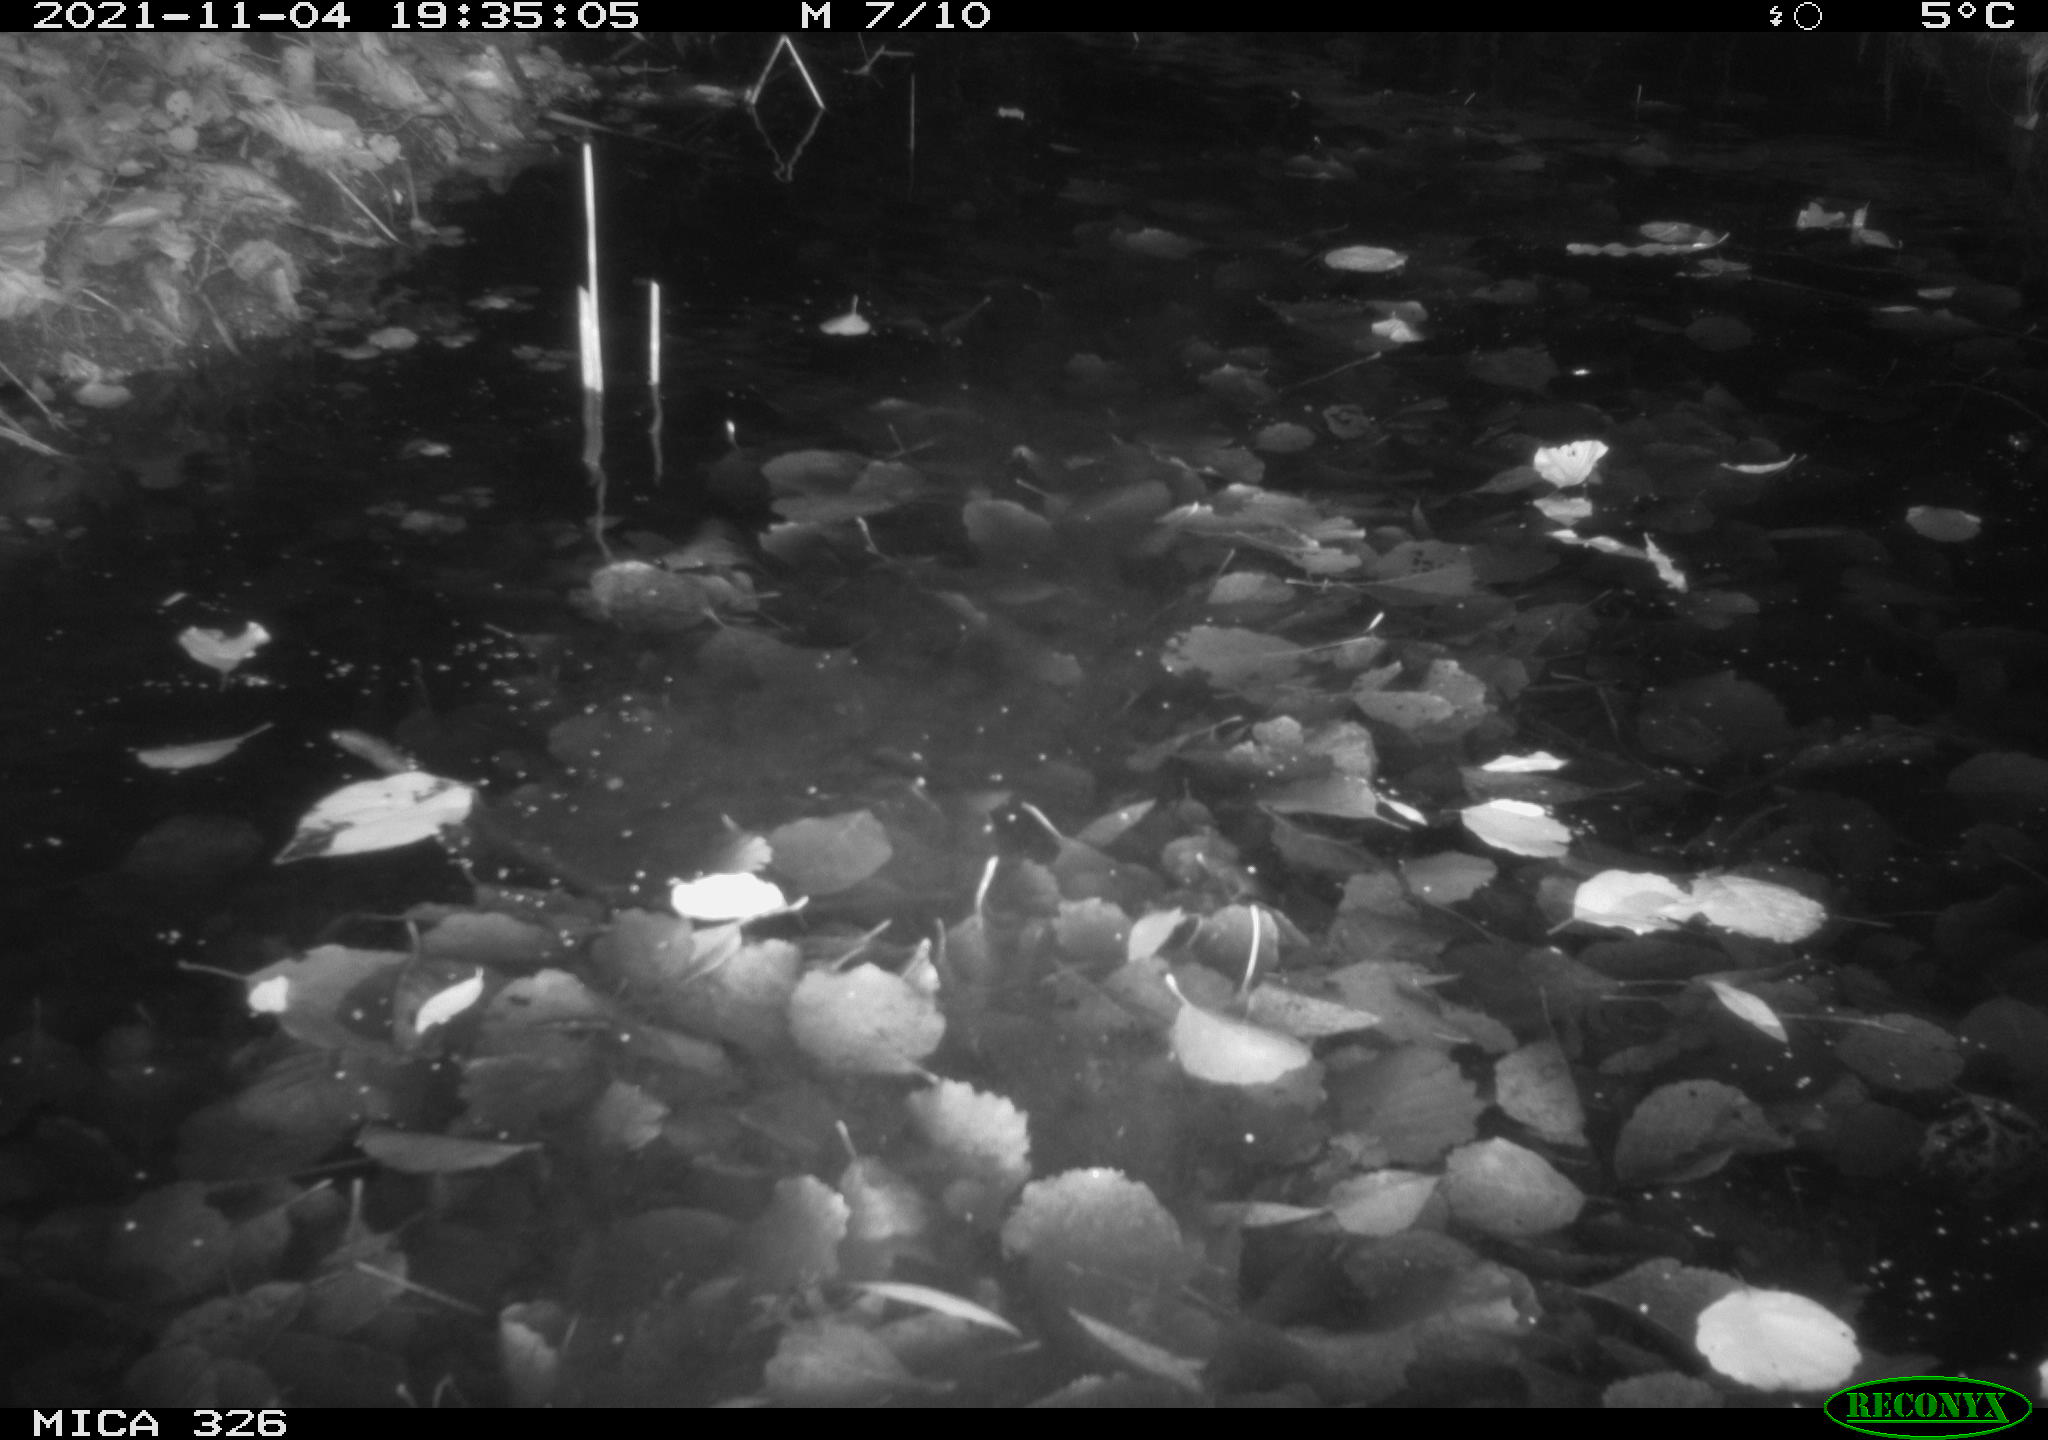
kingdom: Animalia
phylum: Chordata
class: Mammalia
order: Rodentia
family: Myocastoridae
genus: Myocastor
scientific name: Myocastor coypus
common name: Coypu
